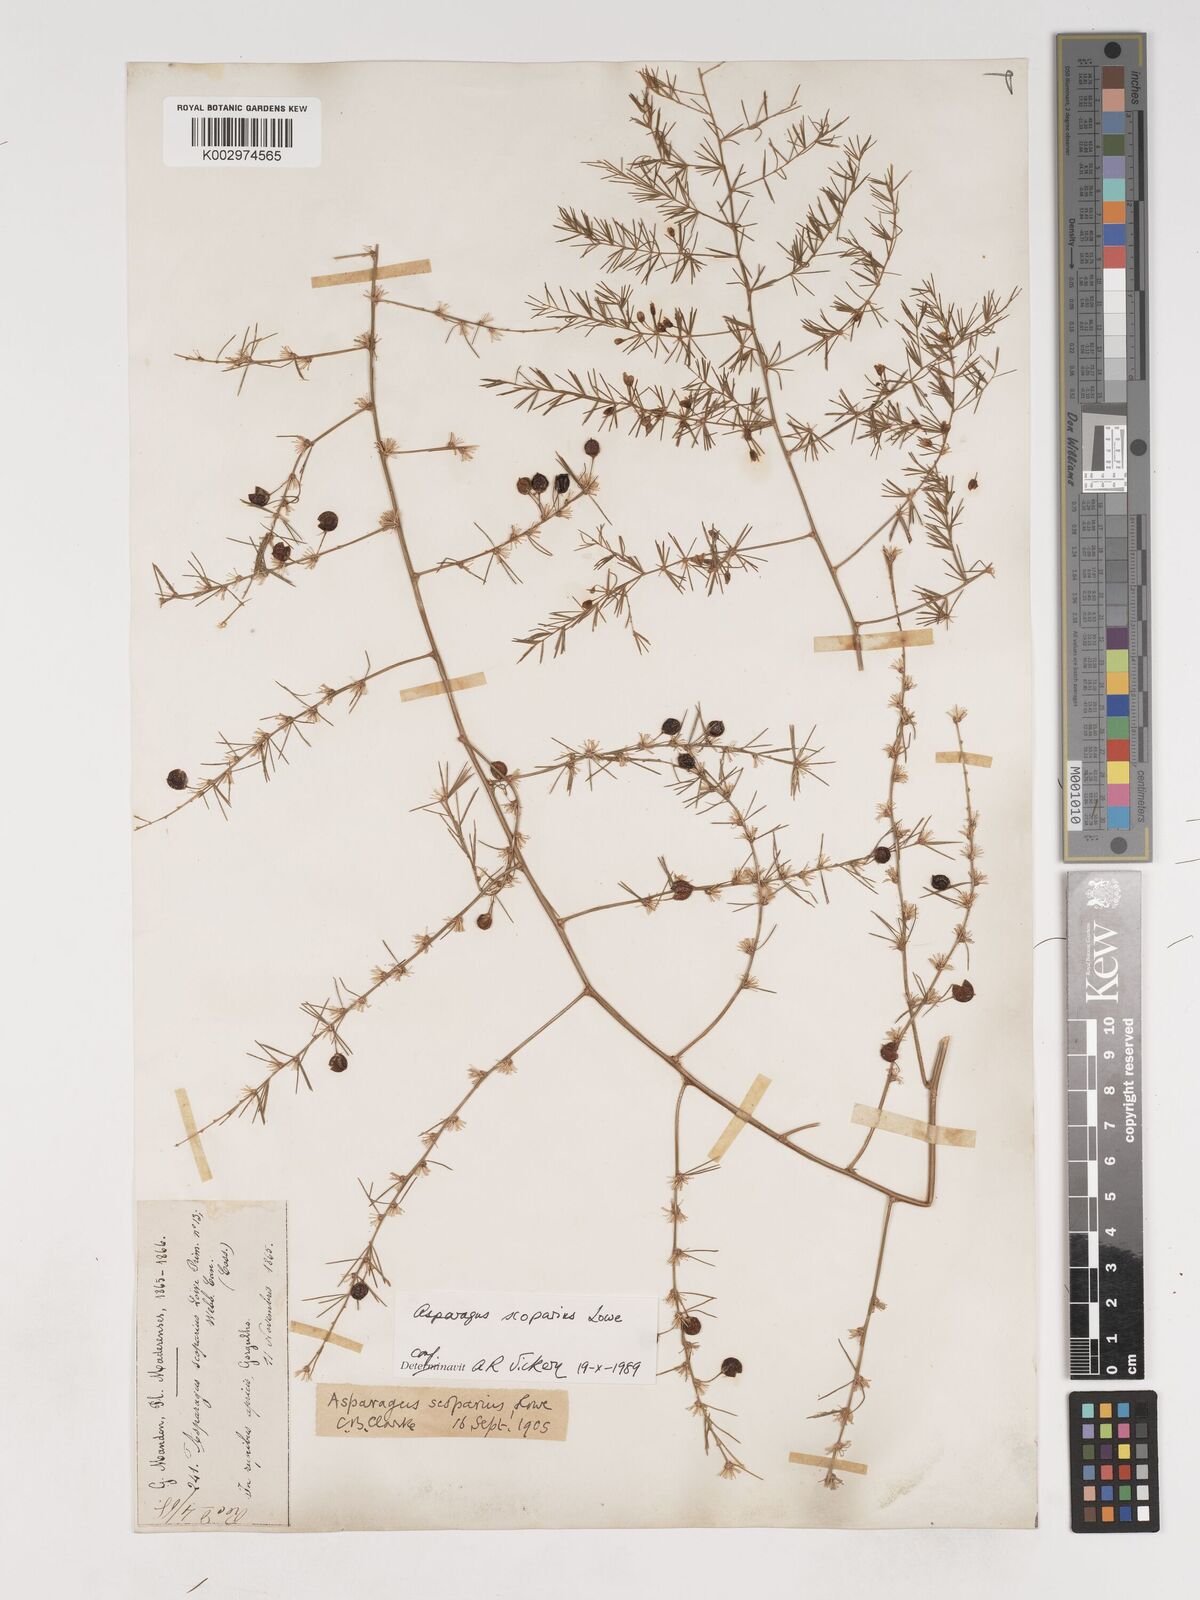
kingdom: Plantae
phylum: Tracheophyta
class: Liliopsida
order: Asparagales
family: Asparagaceae
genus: Asparagus
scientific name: Asparagus scoparius
